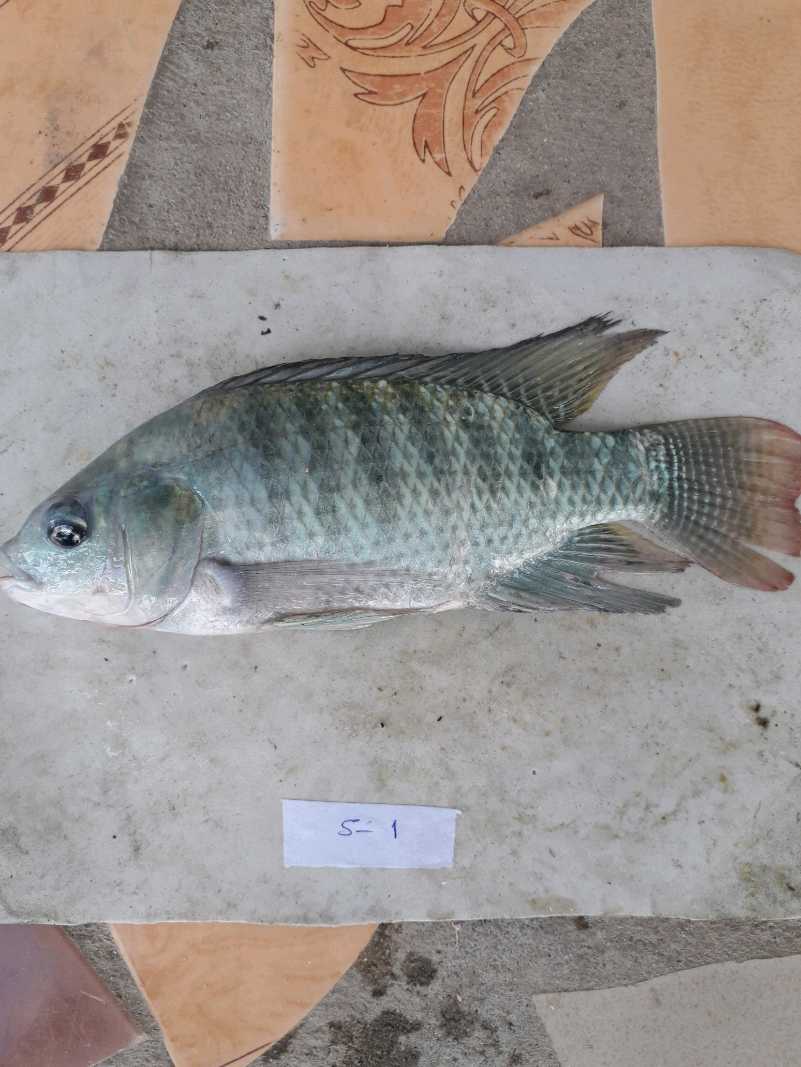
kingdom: Animalia
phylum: Chordata
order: Perciformes
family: Cichlidae
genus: Oreochromis
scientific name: Oreochromis niloticus
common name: Nile tilapia
